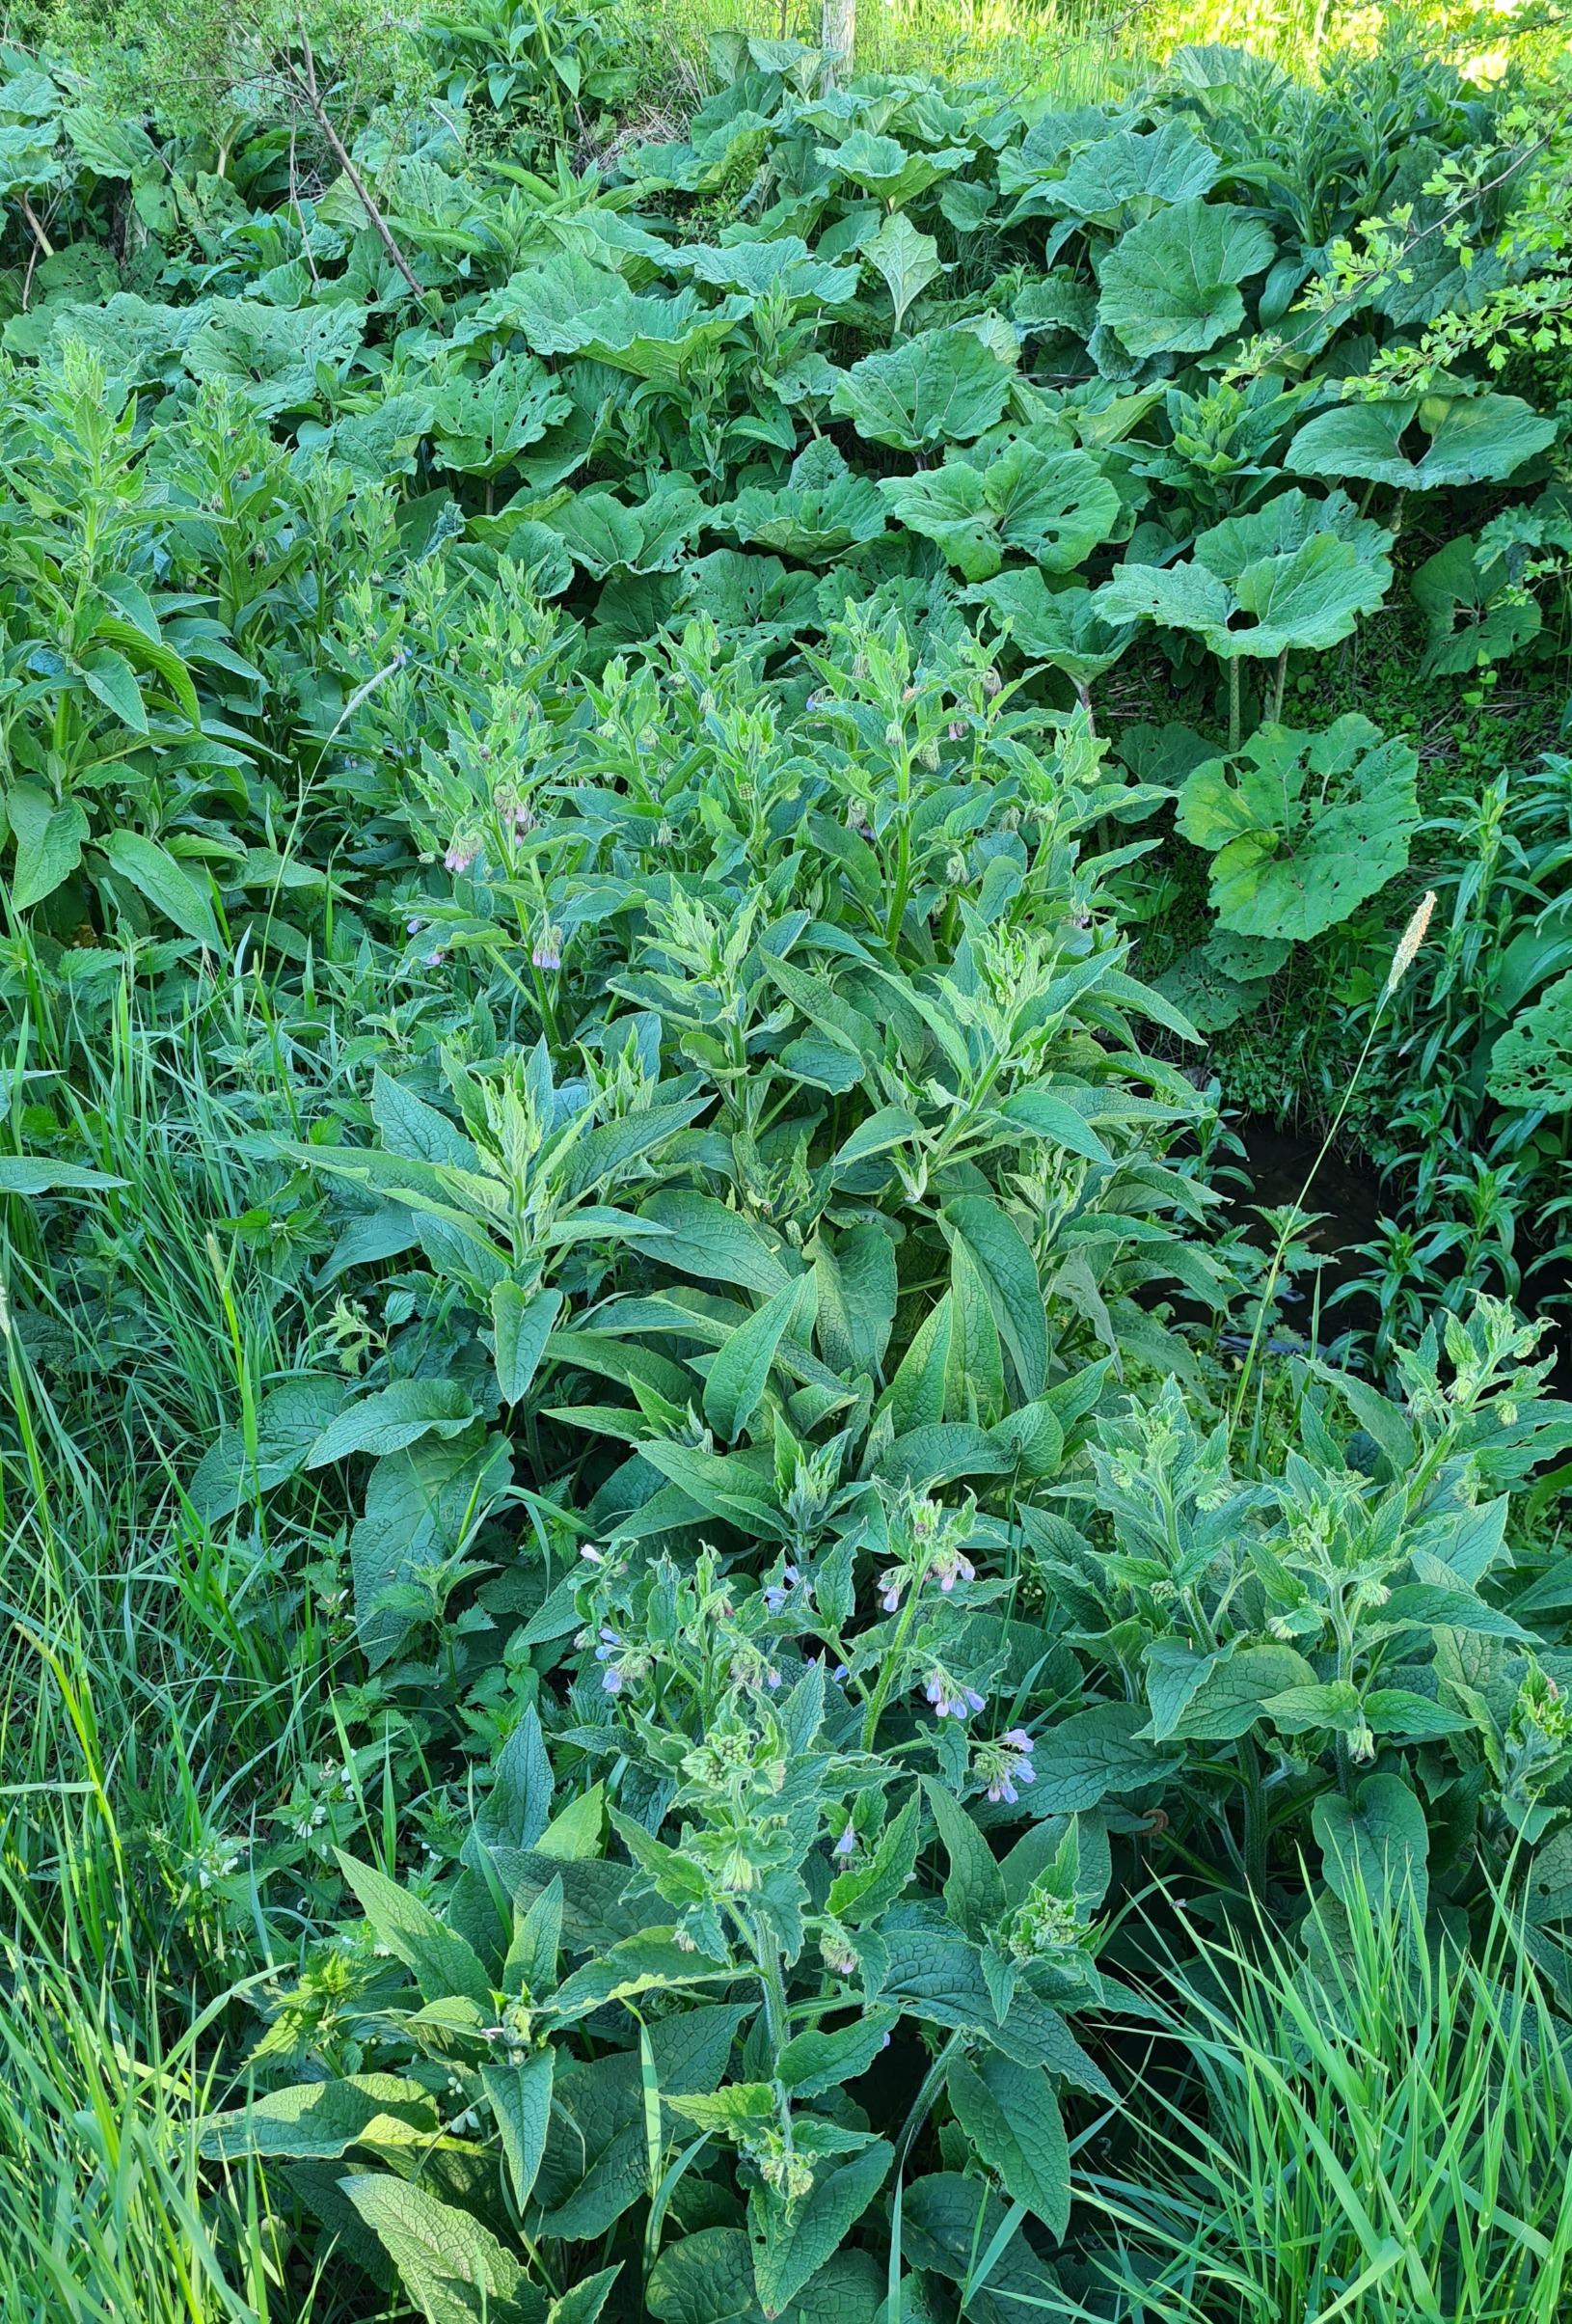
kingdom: Plantae
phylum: Tracheophyta
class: Magnoliopsida
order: Boraginales
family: Boraginaceae
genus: Symphytum
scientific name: Symphytum uplandicum
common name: Foder-kulsukker
